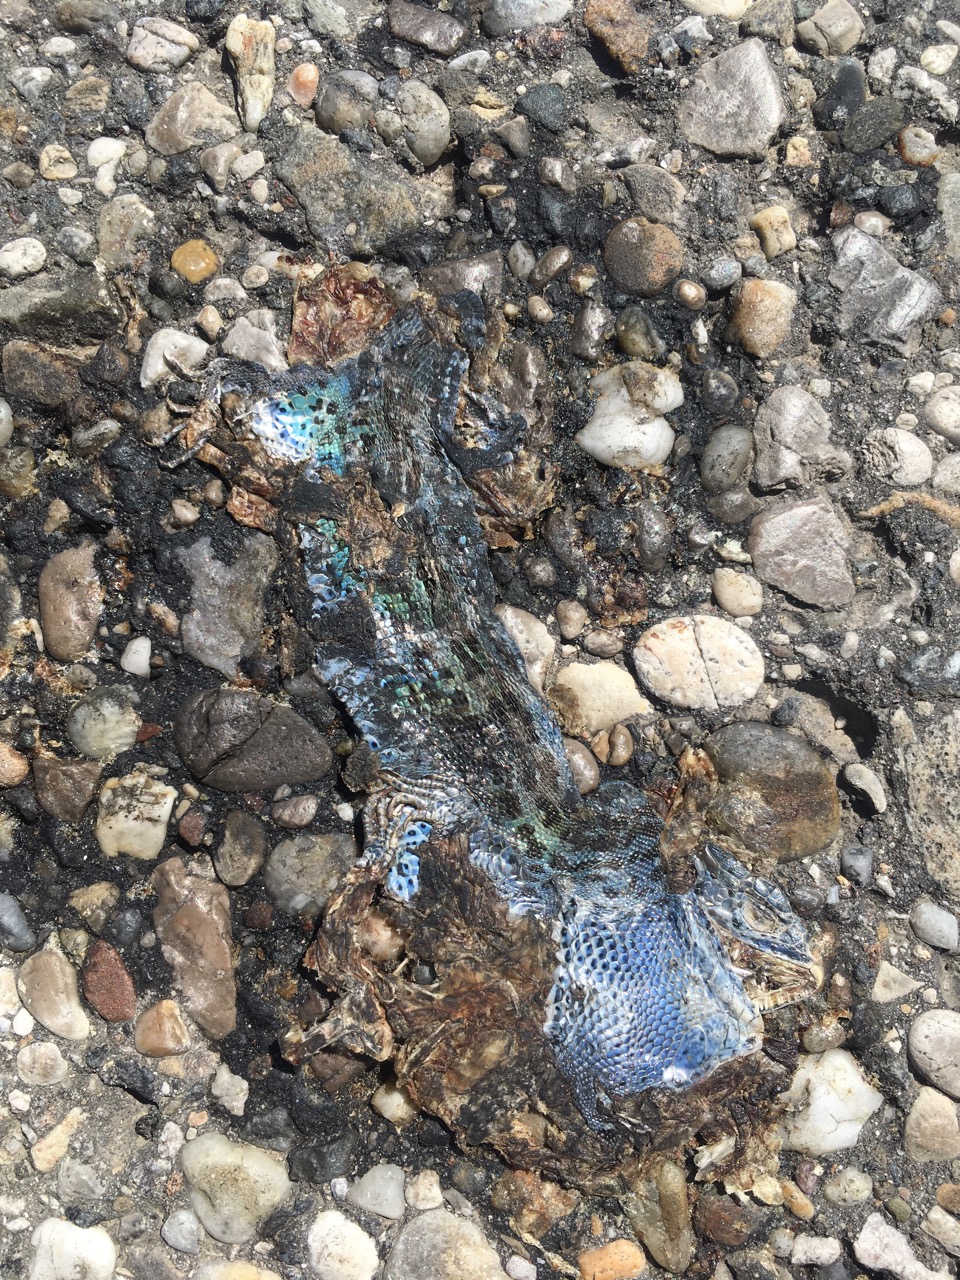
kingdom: Animalia
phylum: Chordata
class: Squamata
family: Lacertidae
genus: Lacerta
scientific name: Lacerta agilis
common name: Sand lizard
